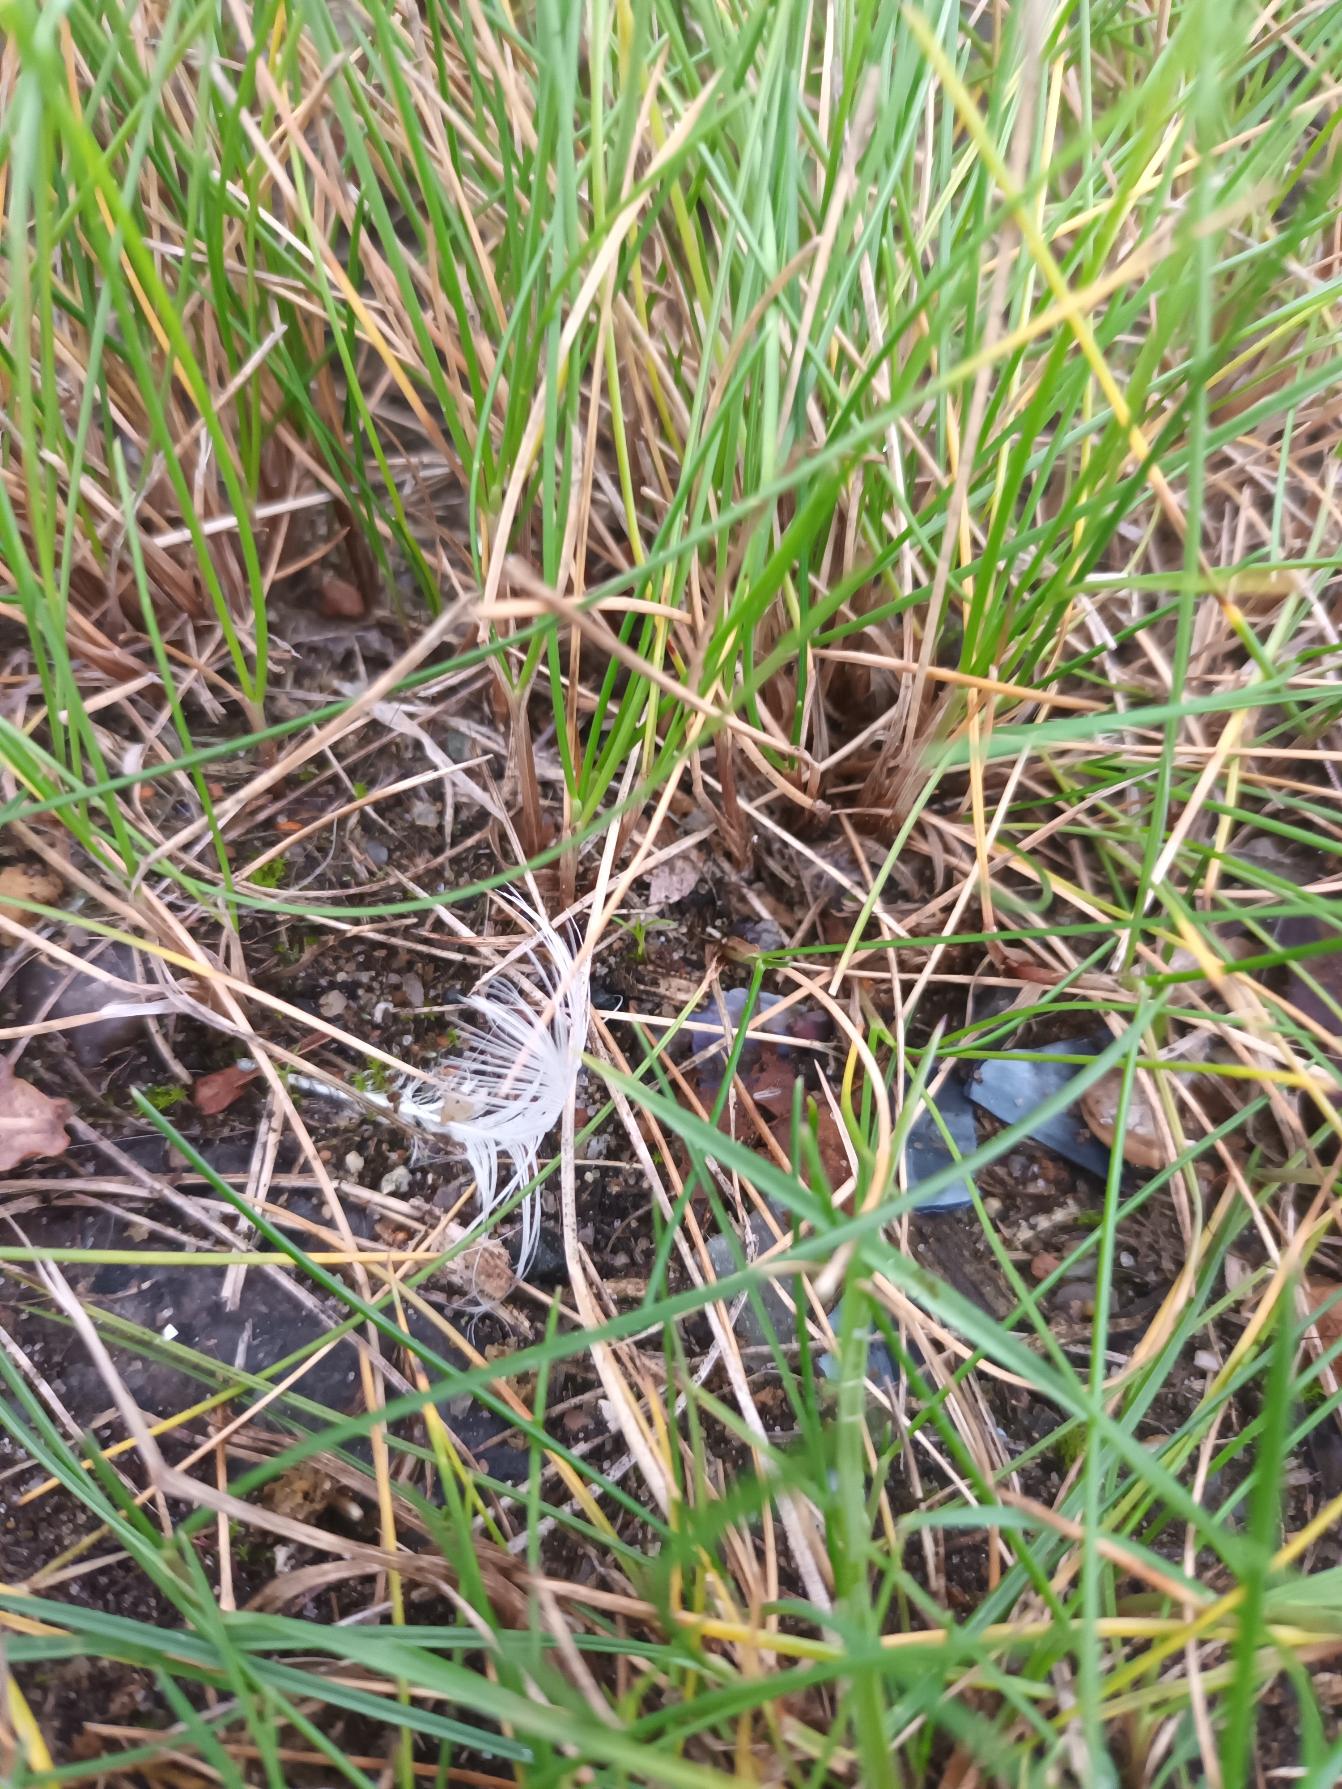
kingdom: Plantae
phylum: Tracheophyta
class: Liliopsida
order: Poales
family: Poaceae
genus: Festuca
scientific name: Festuca rubra
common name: Rød svingel
